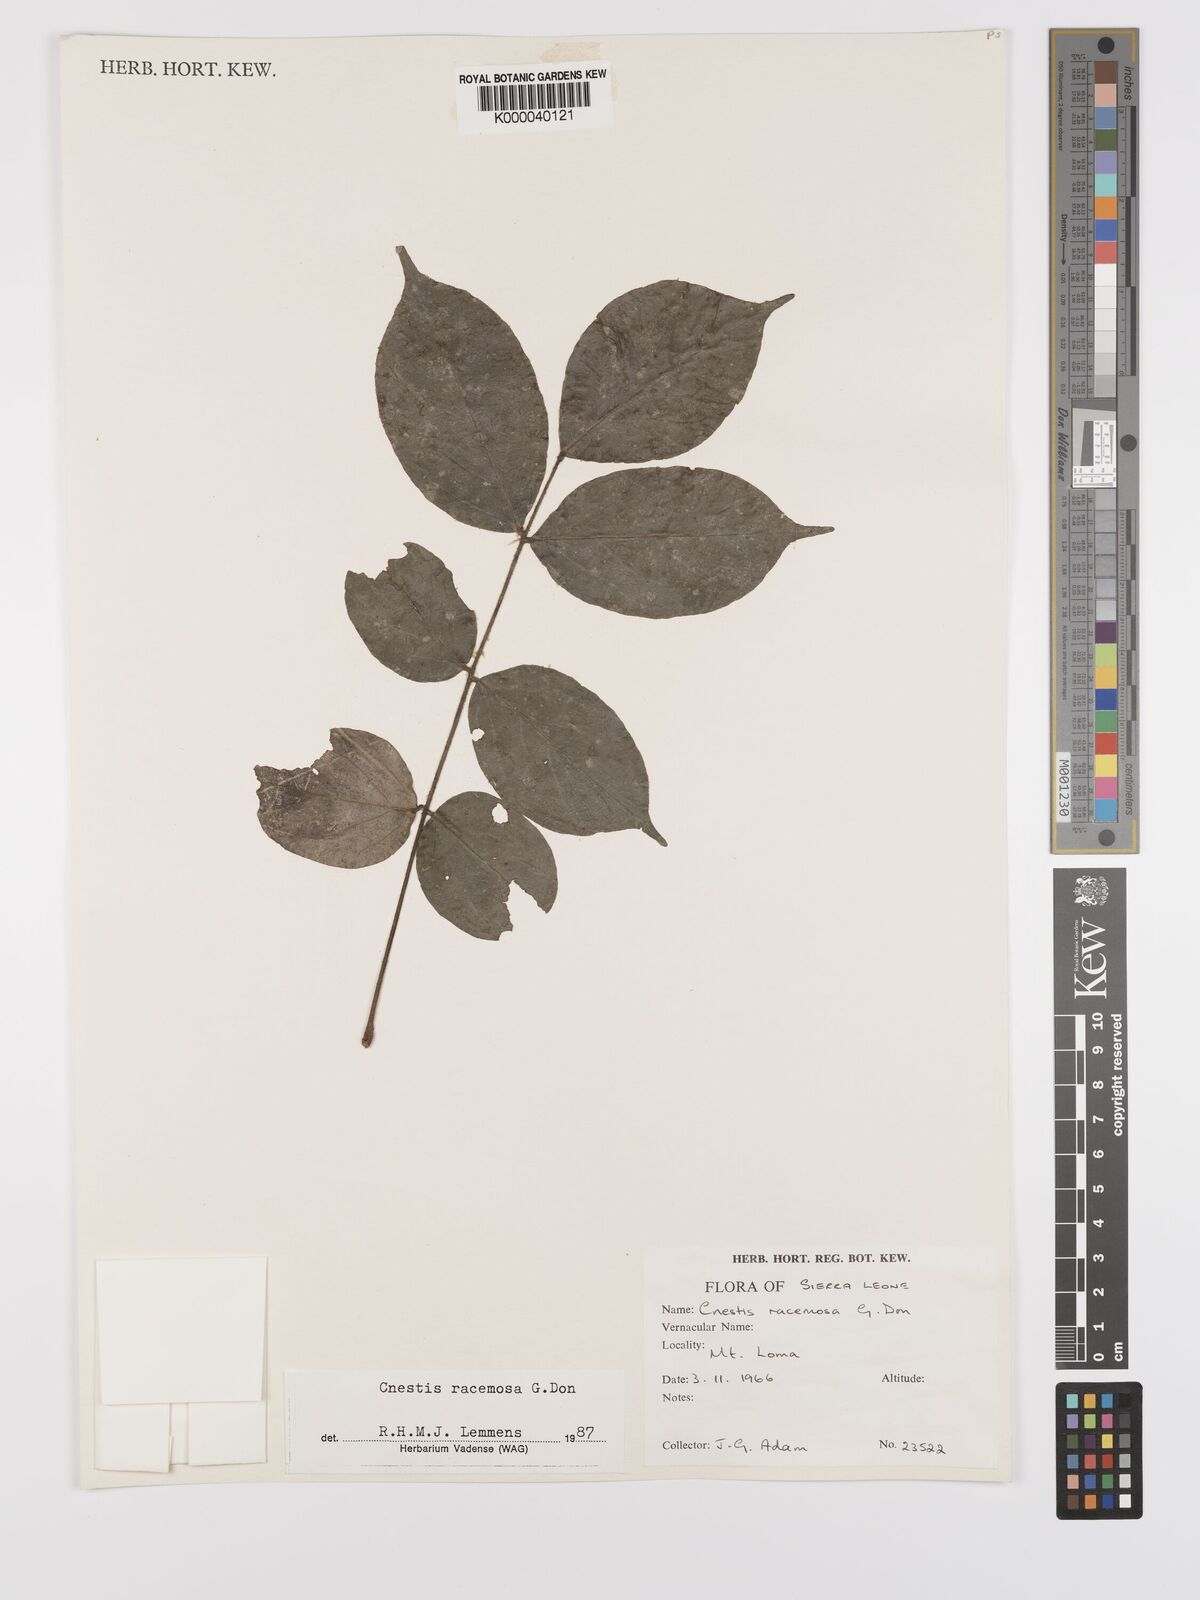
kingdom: Plantae
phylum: Tracheophyta
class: Magnoliopsida
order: Oxalidales
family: Connaraceae
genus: Cnestis
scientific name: Cnestis racemosa
